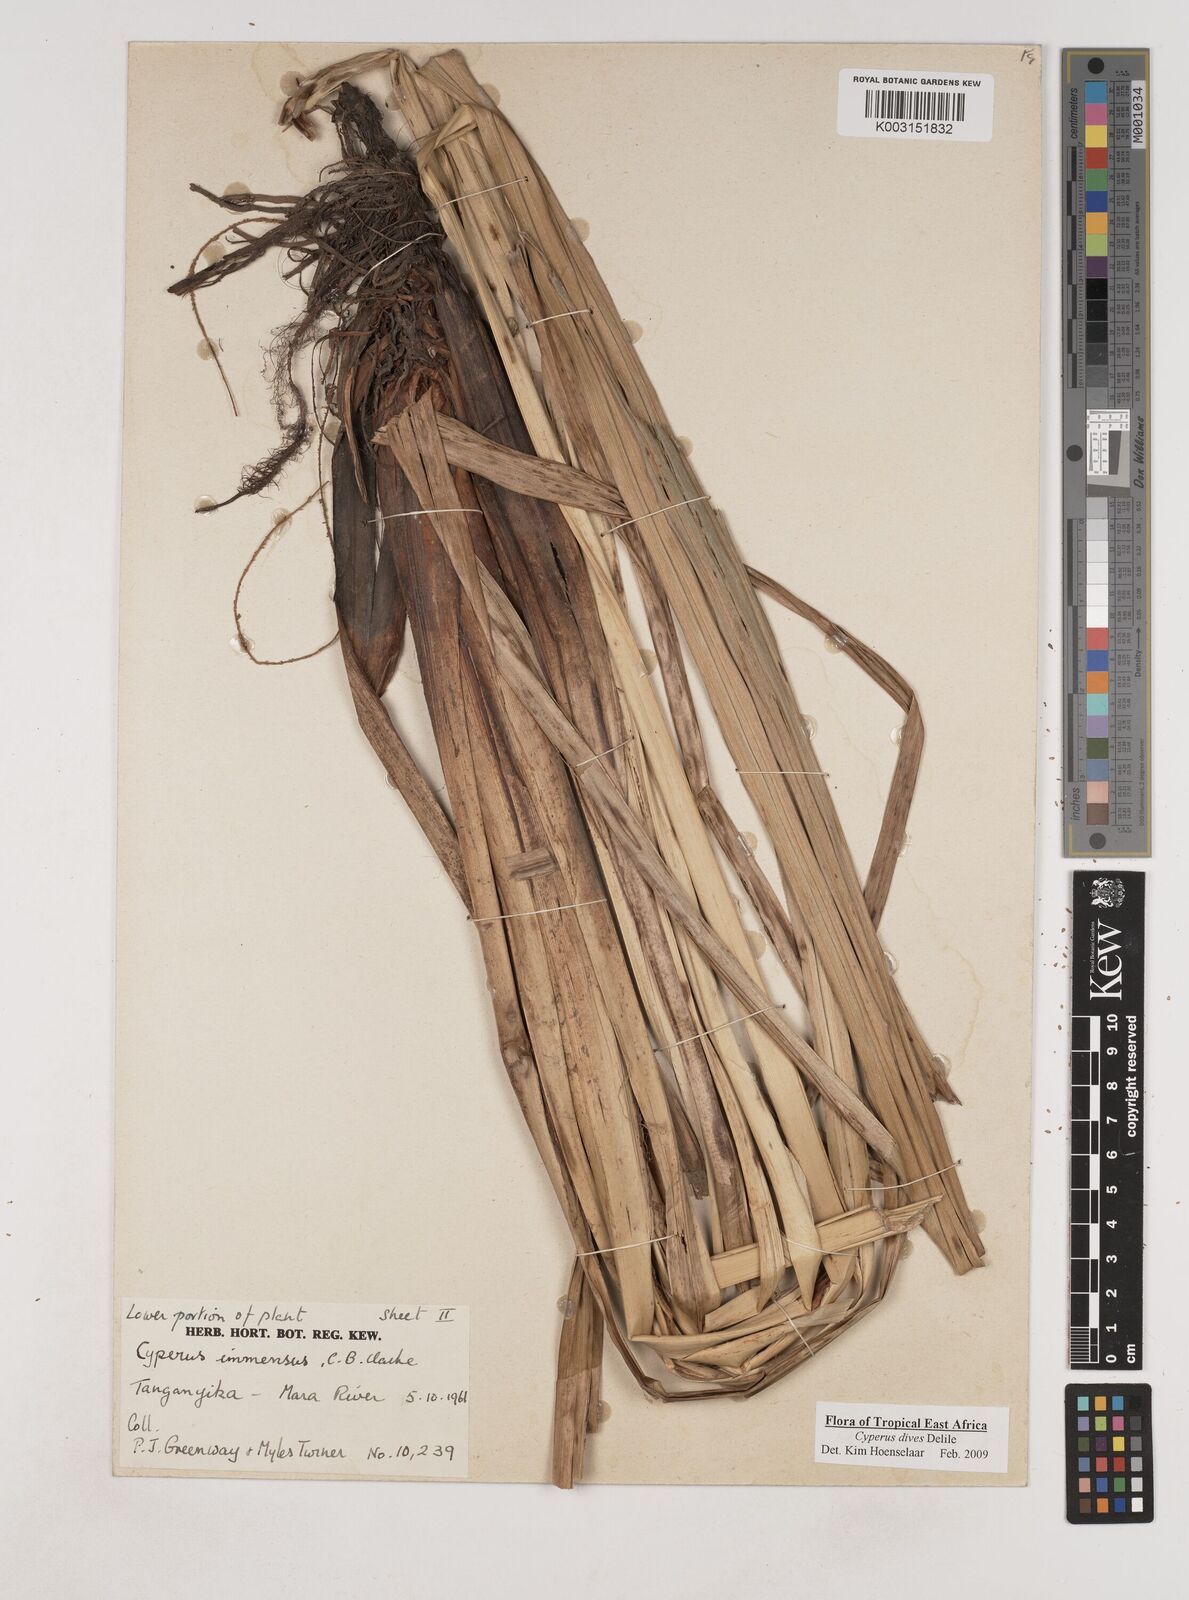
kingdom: Plantae
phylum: Tracheophyta
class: Liliopsida
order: Poales
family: Cyperaceae
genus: Cyperus
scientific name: Cyperus dives
